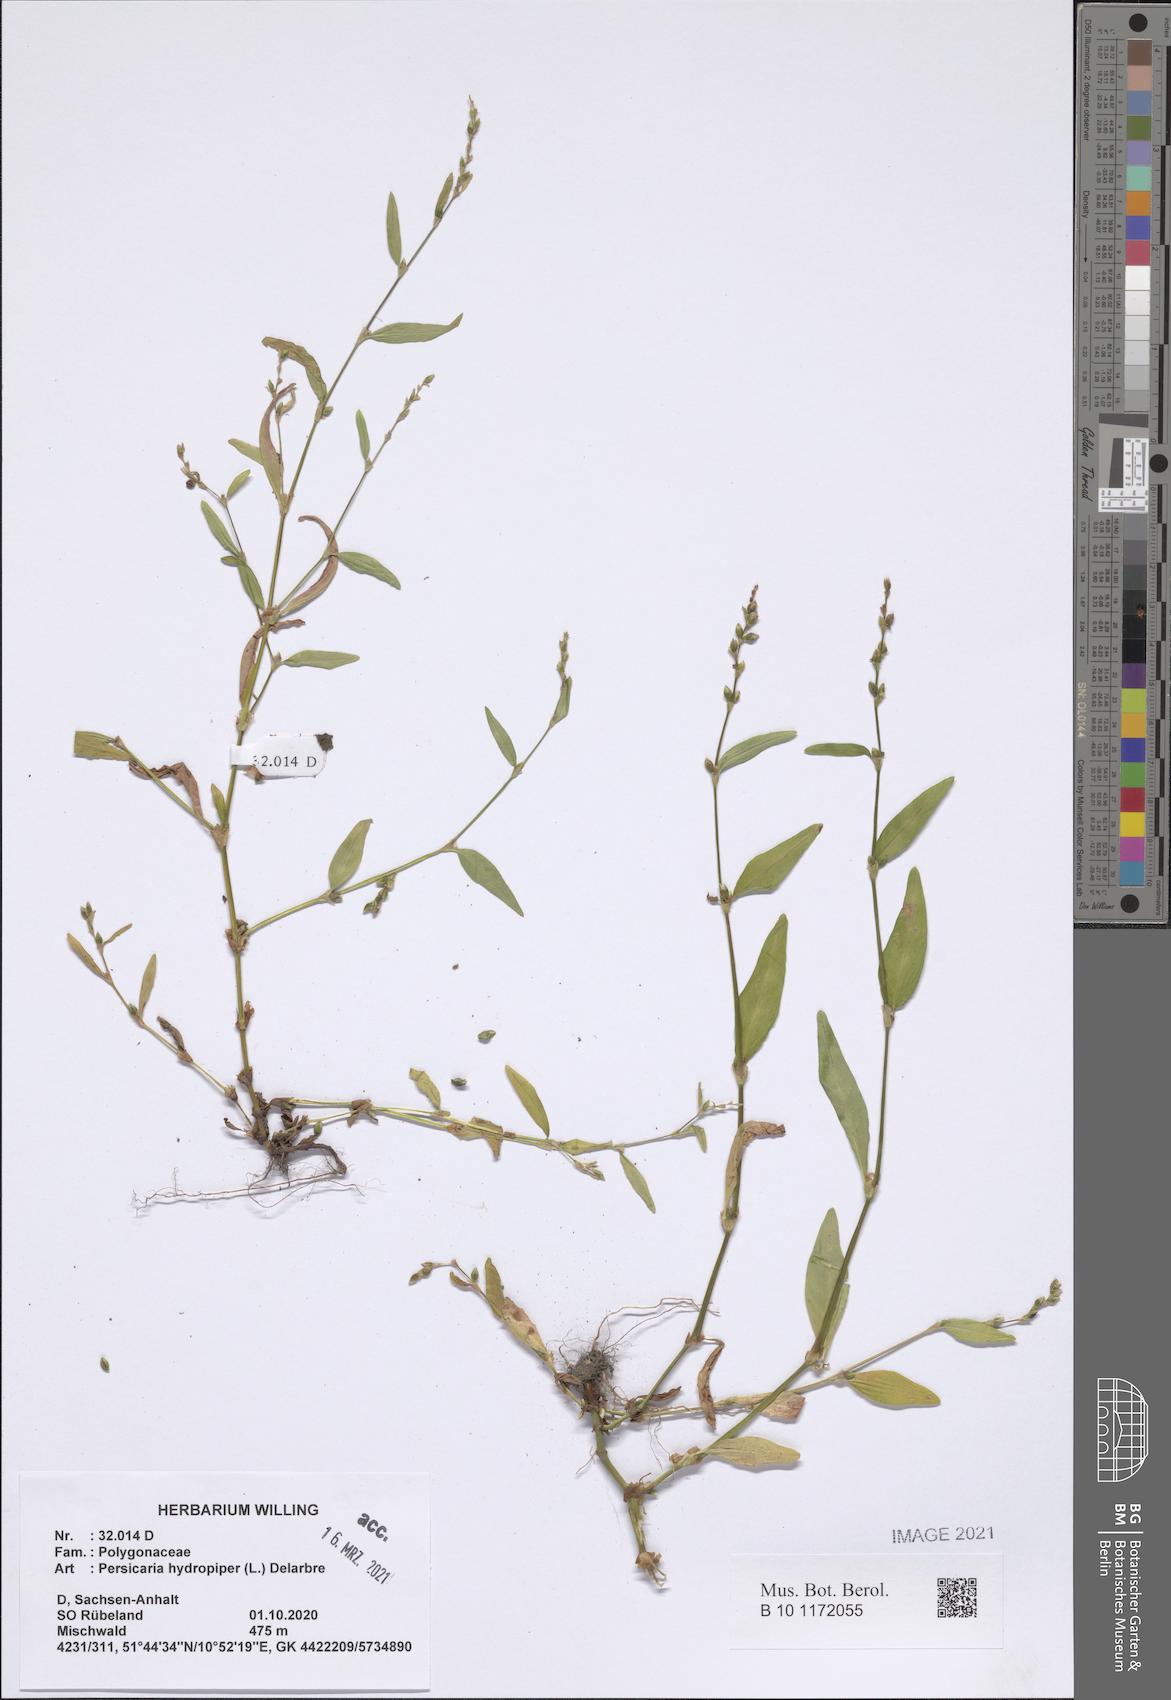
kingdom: Plantae
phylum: Tracheophyta
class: Magnoliopsida
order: Caryophyllales
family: Polygonaceae
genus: Persicaria
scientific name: Persicaria hydropiper
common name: Water-pepper
